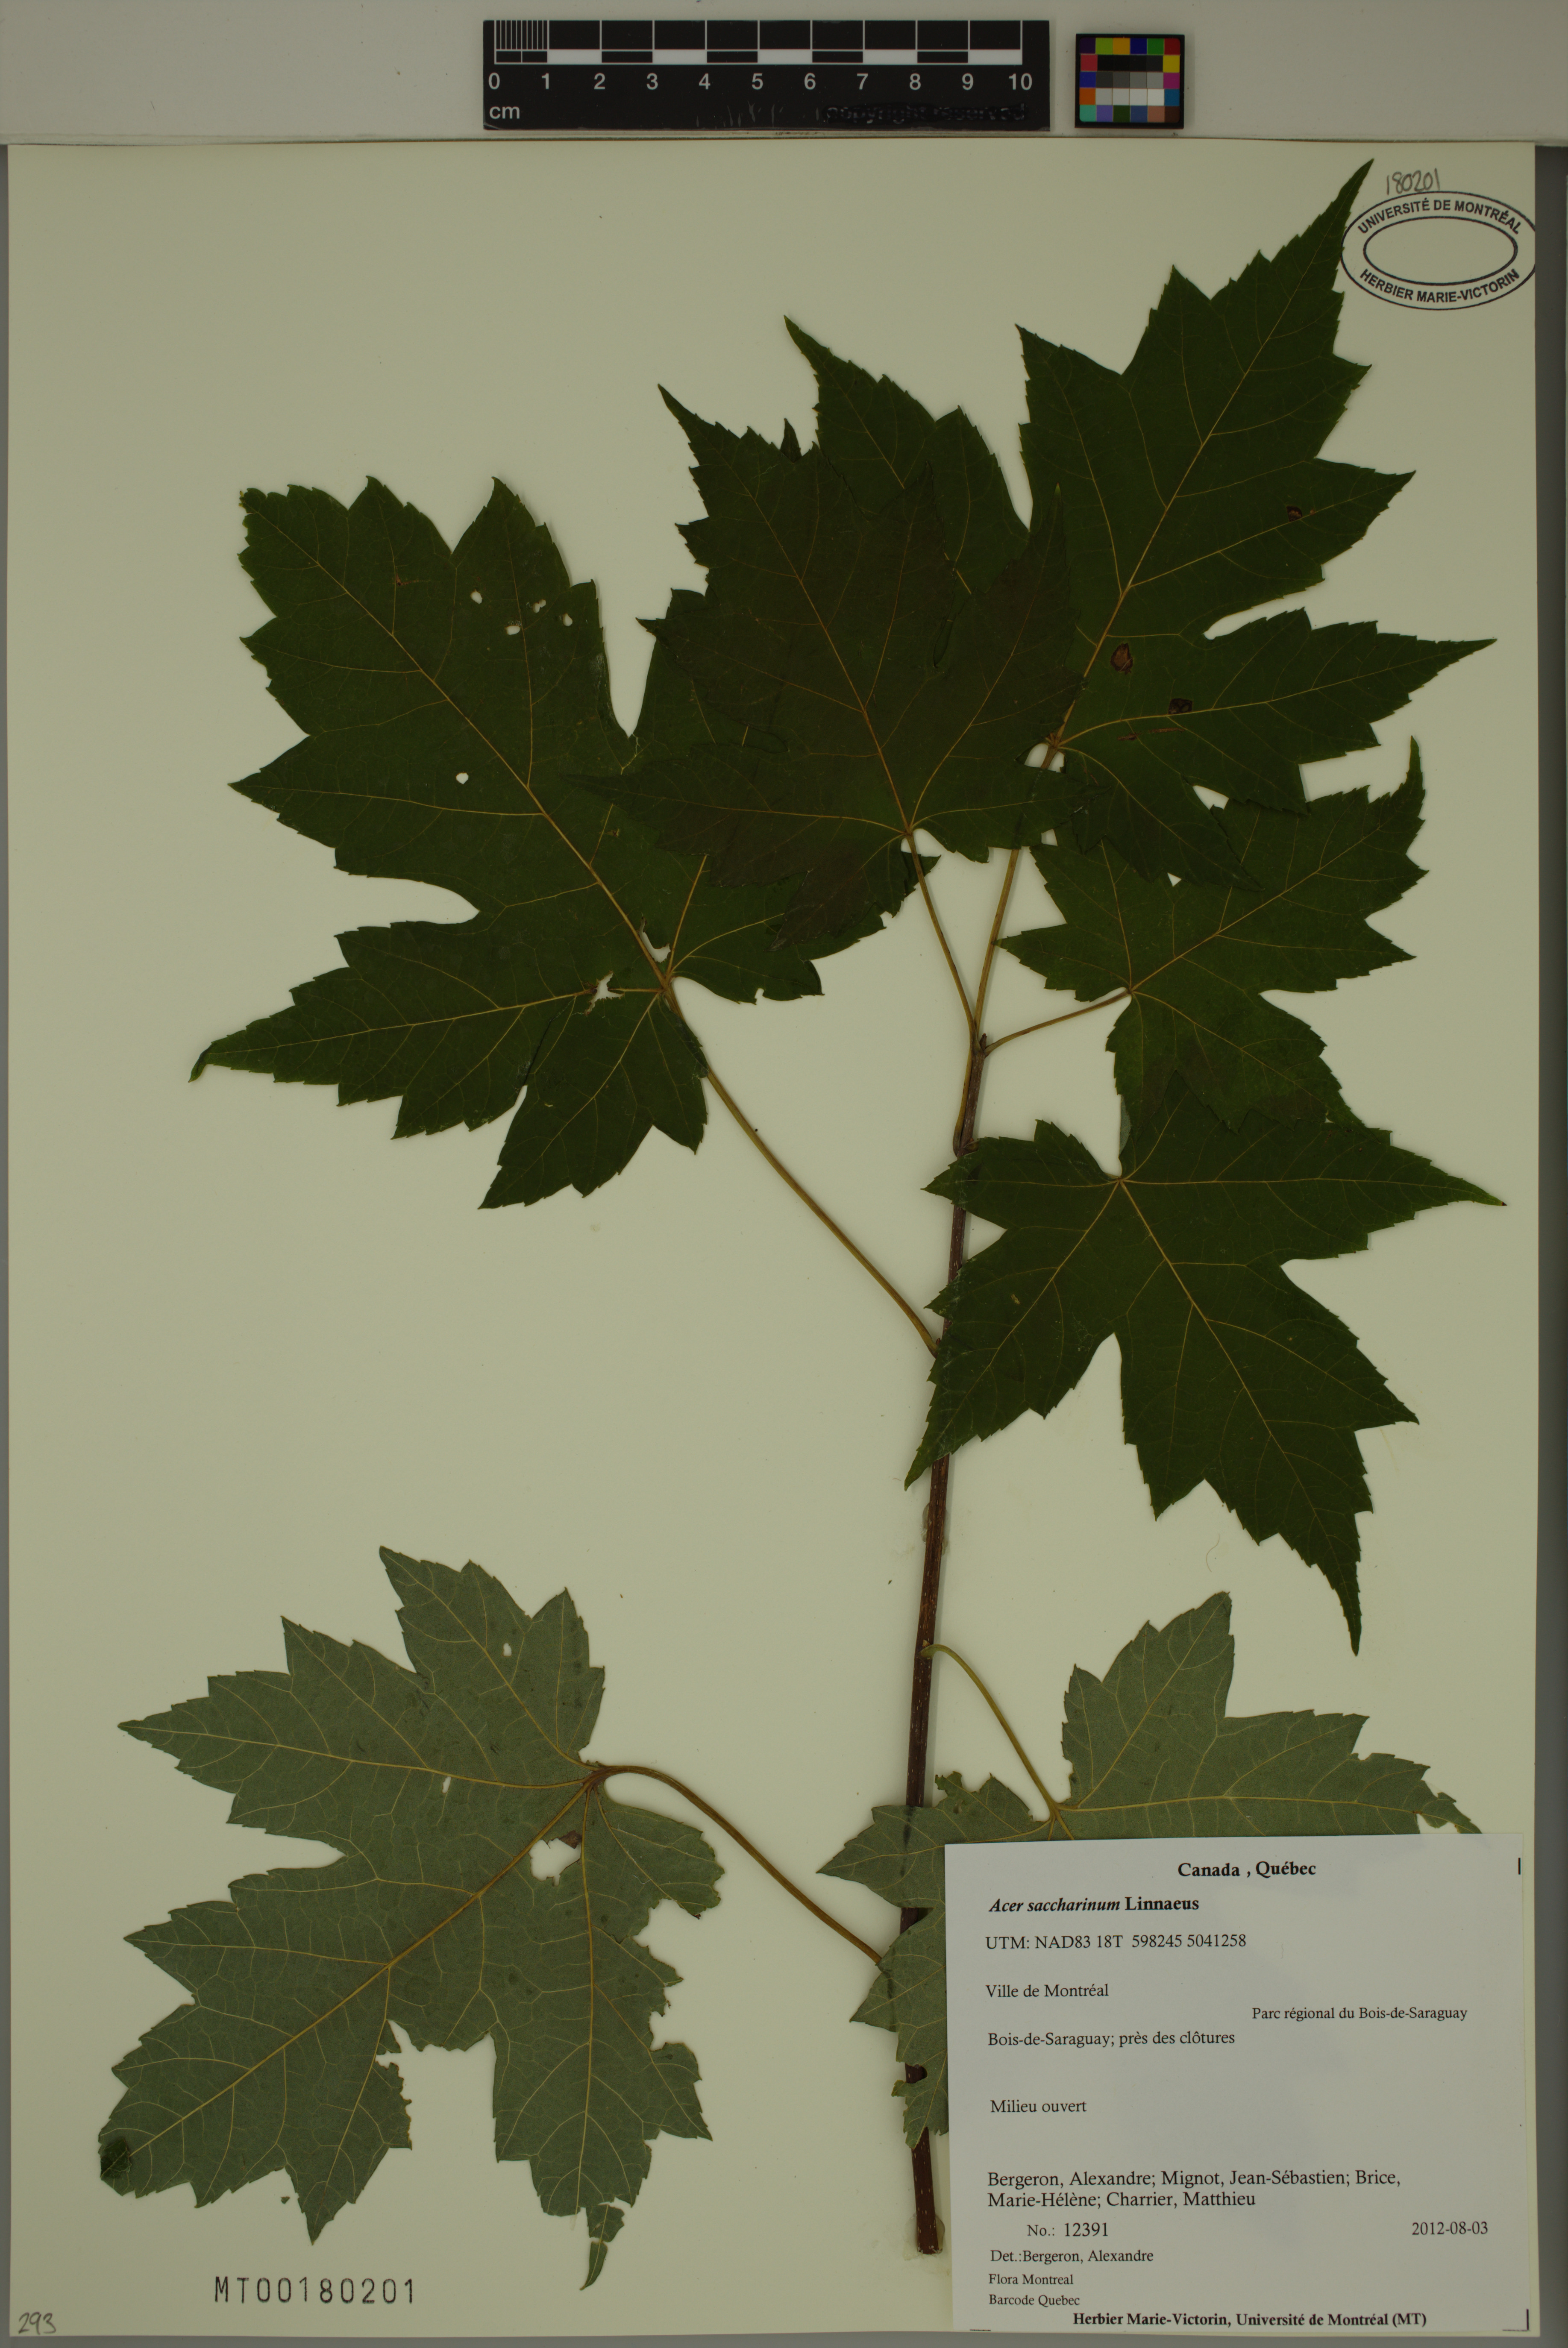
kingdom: Plantae
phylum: Tracheophyta
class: Magnoliopsida
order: Sapindales
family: Sapindaceae
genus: Acer
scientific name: Acer saccharinum
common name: Silver maple
